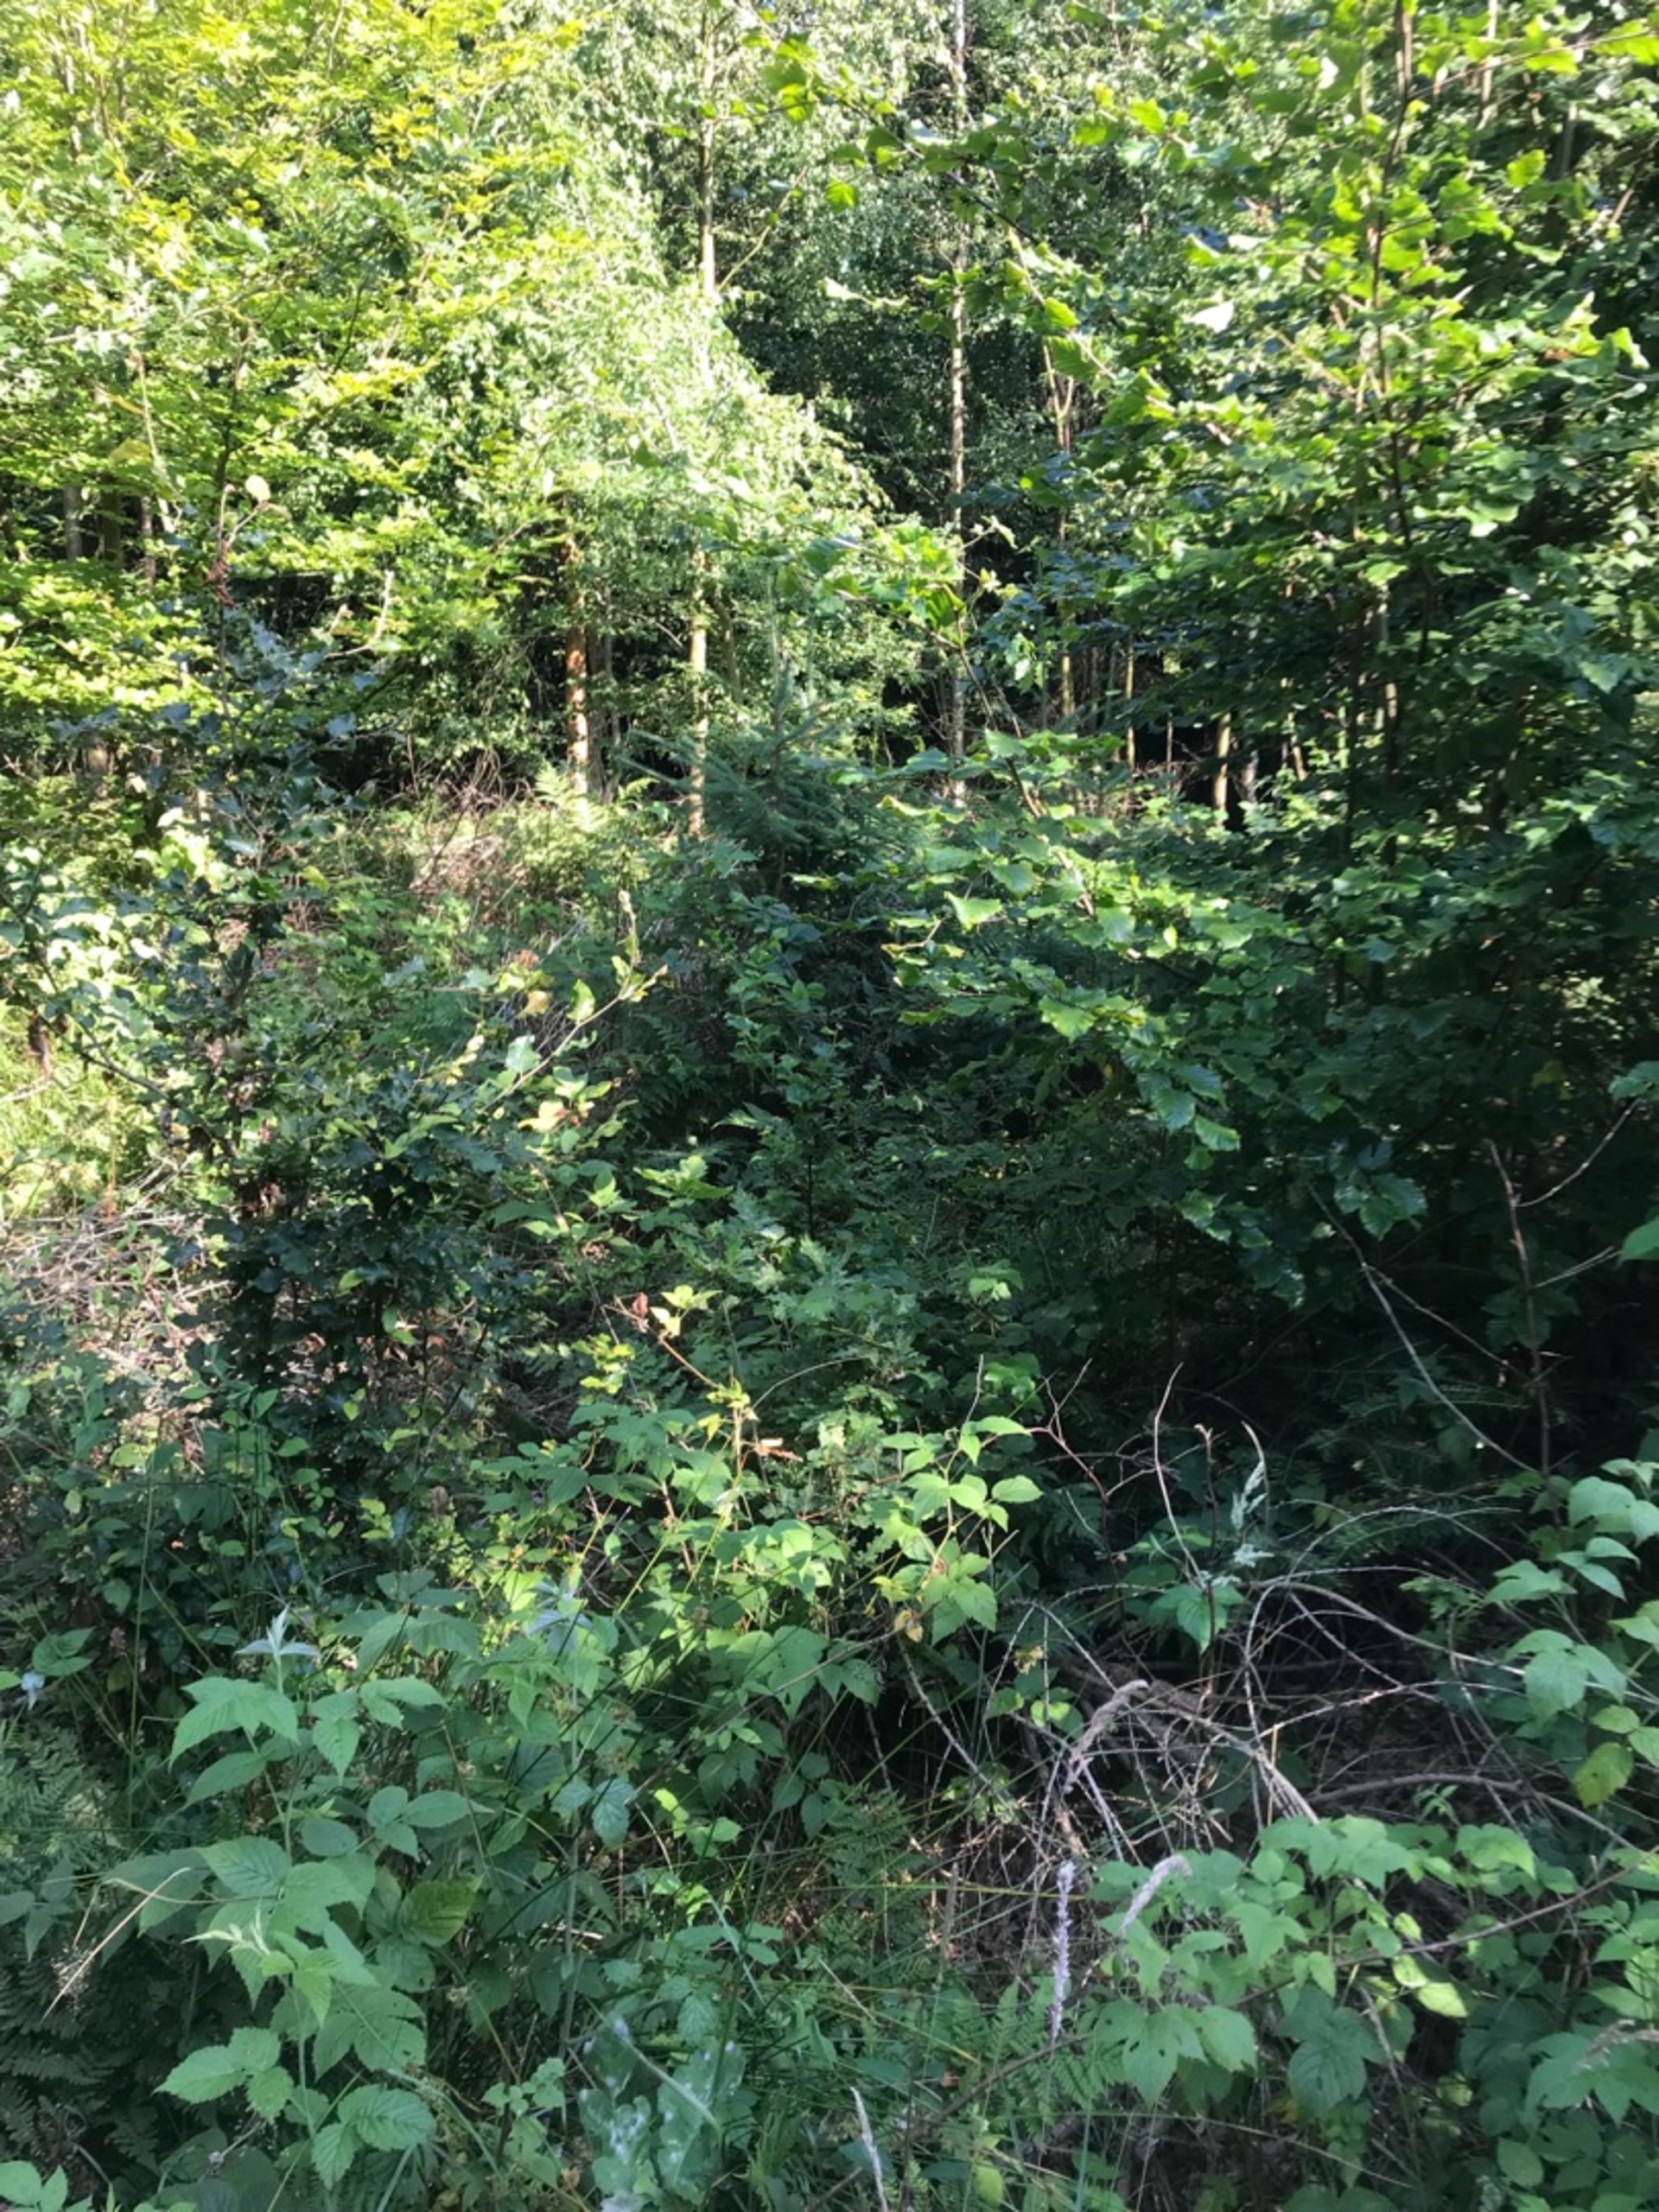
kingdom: Animalia
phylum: Arthropoda
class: Insecta
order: Lepidoptera
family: Nymphalidae
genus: Argynnis
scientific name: Argynnis paphia
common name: Kejserkåbe
